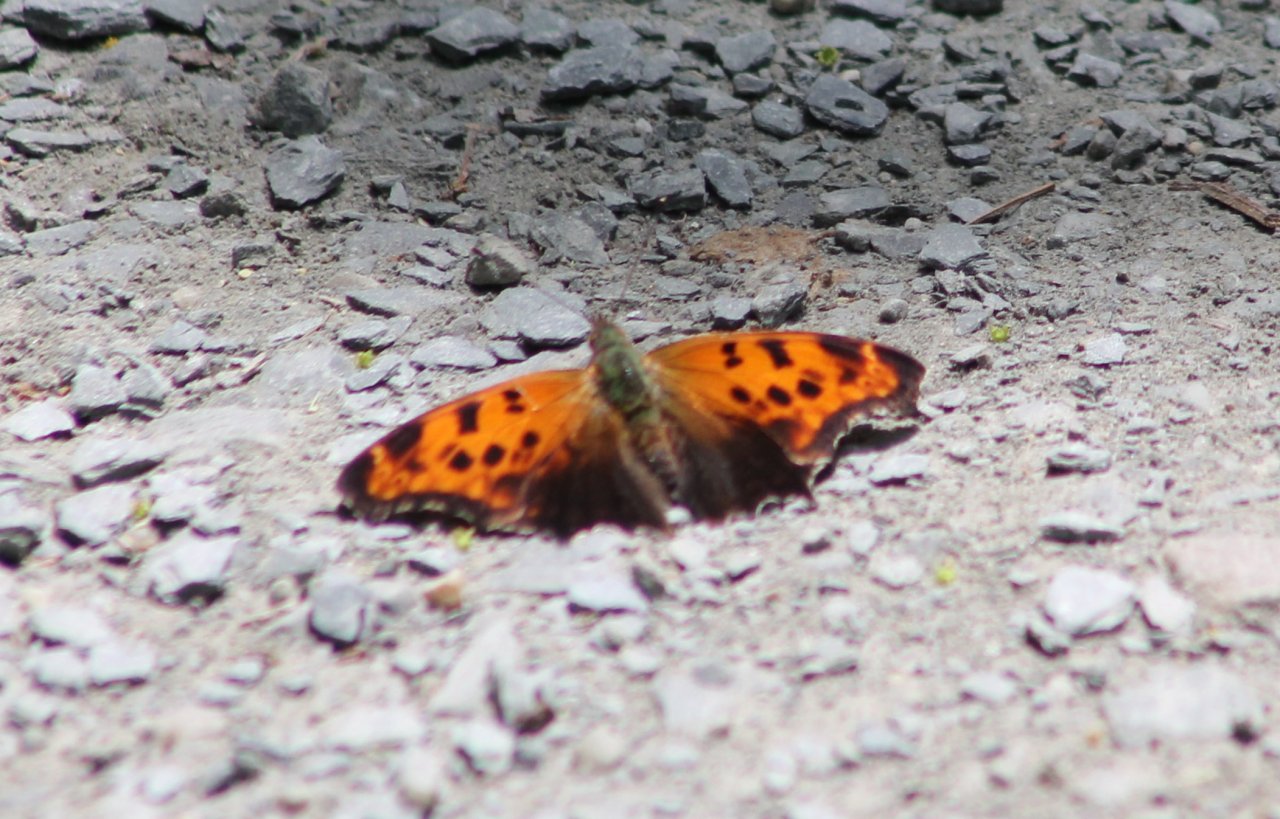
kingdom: Animalia
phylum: Arthropoda
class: Insecta
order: Lepidoptera
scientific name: Lepidoptera
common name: Butterflies
